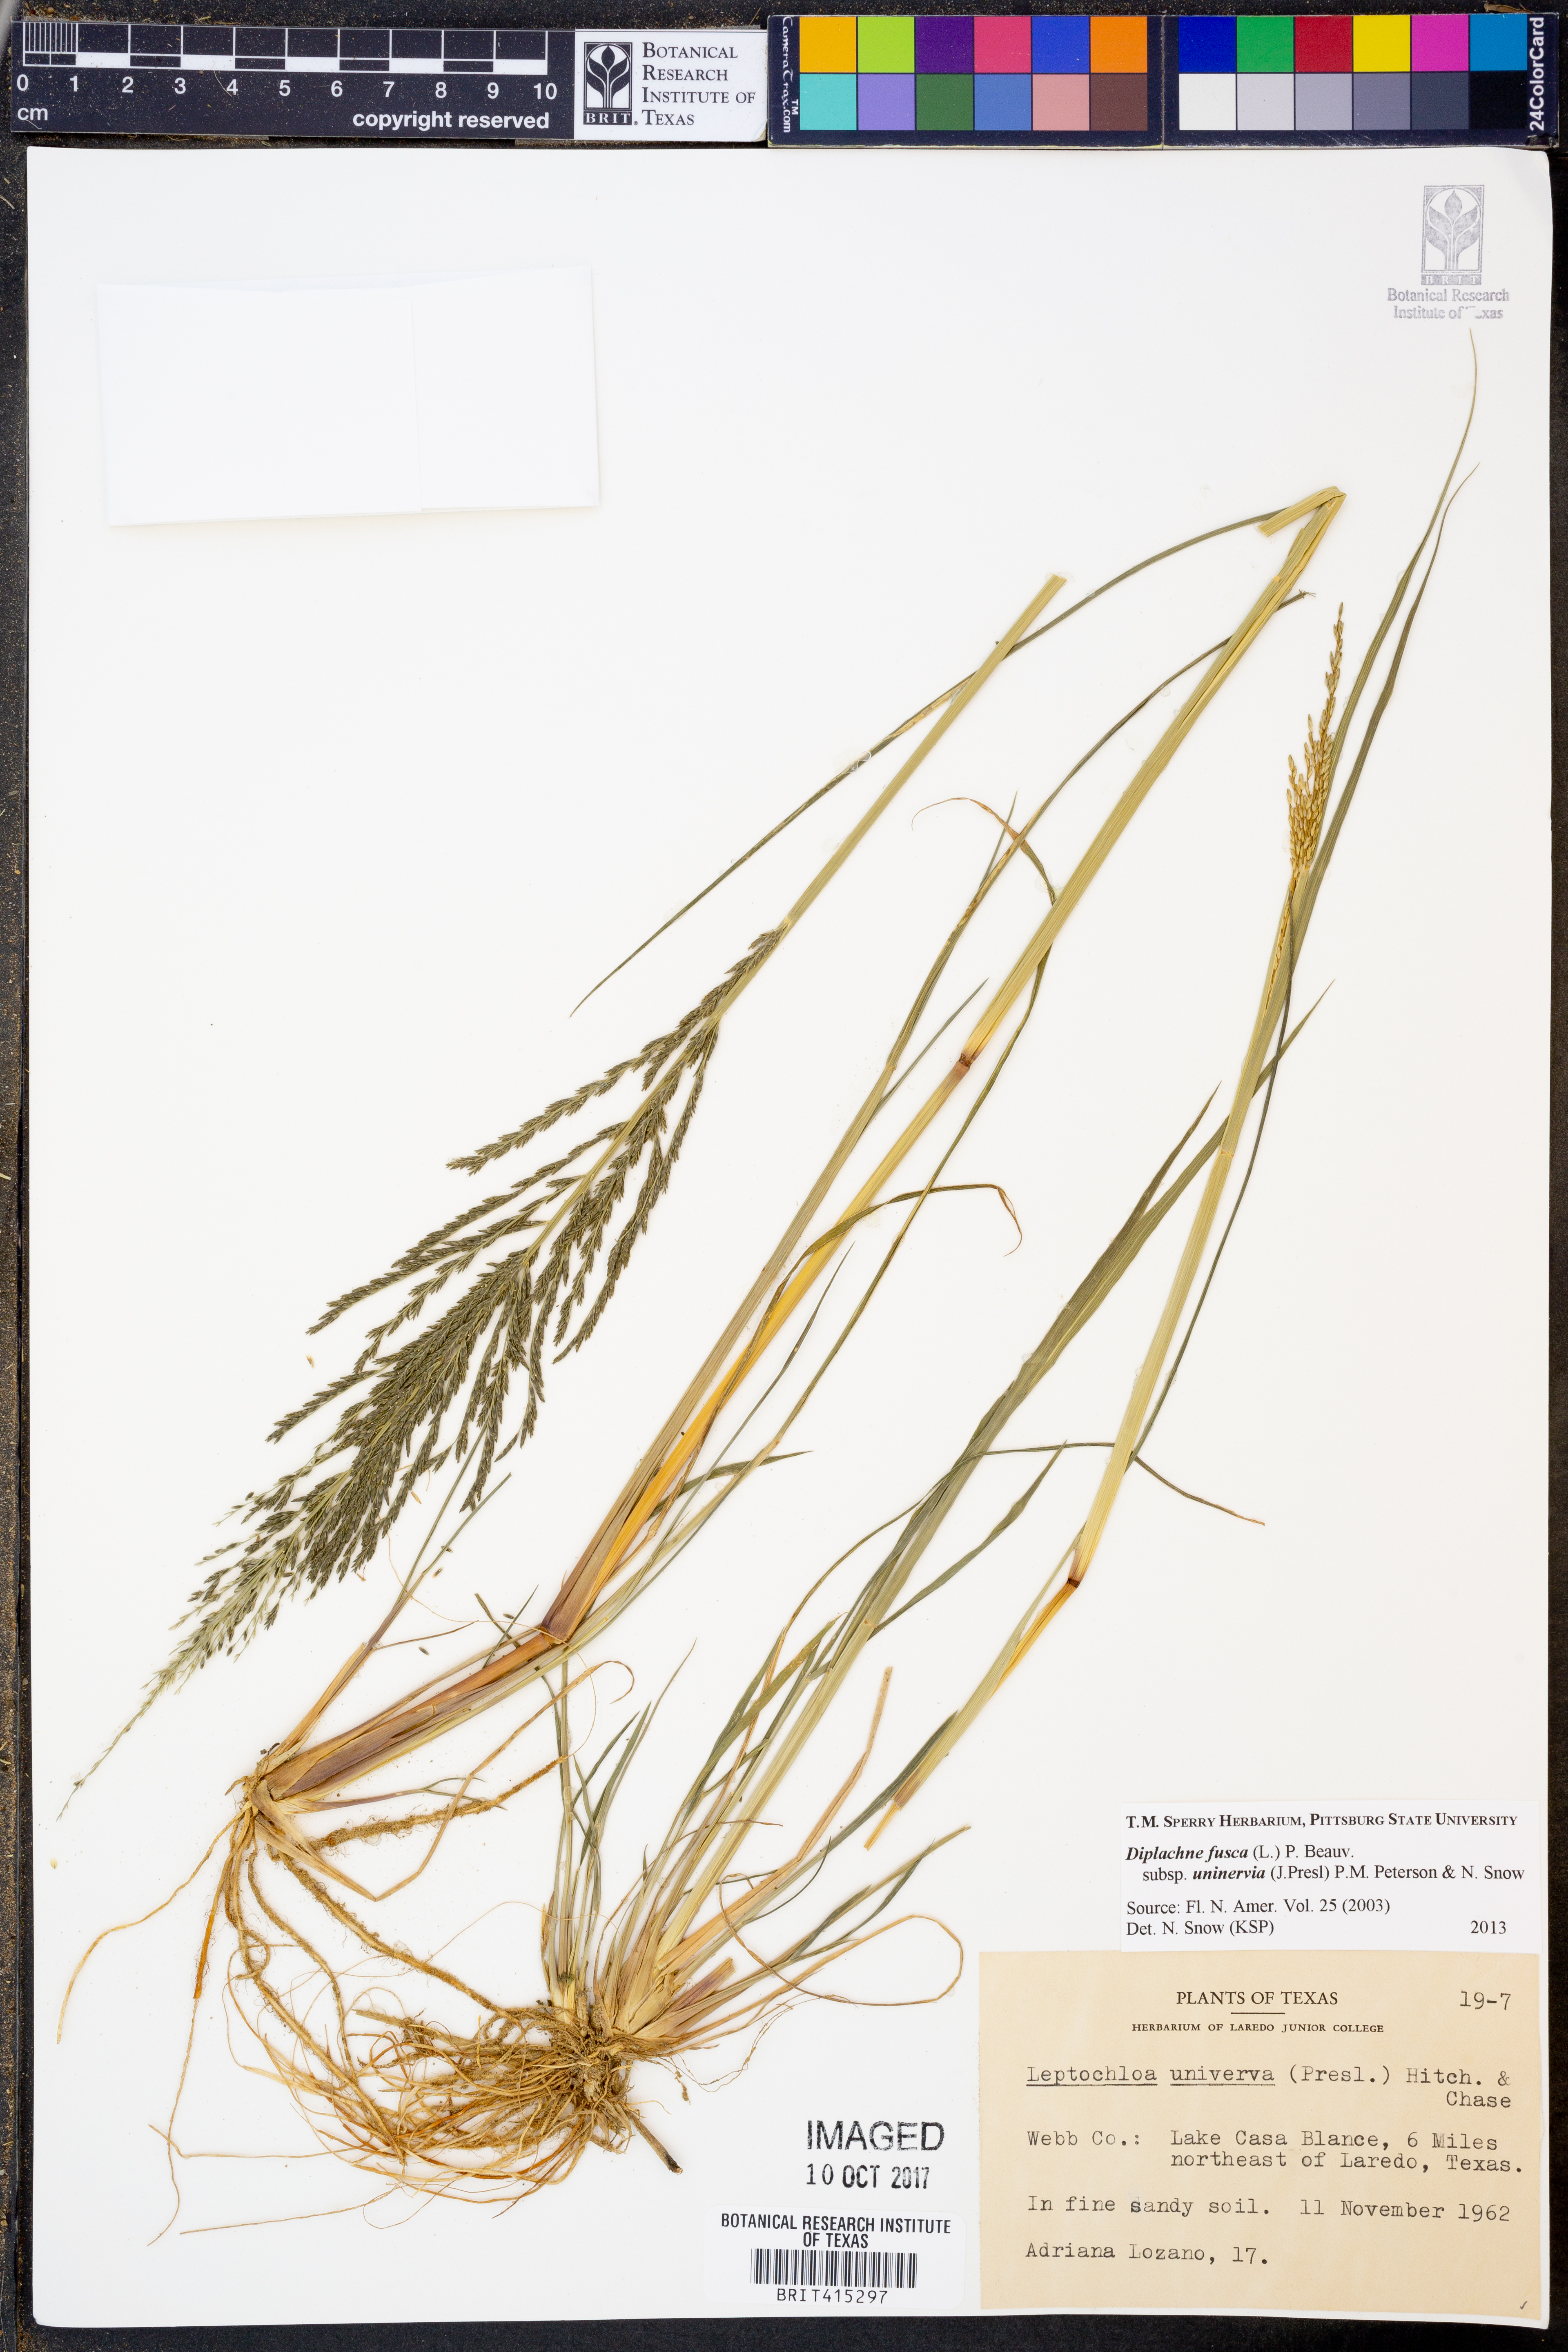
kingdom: Plantae
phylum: Tracheophyta
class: Liliopsida
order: Poales
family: Poaceae
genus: Diplachne
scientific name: Diplachne fusca
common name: Brown beetle grass
